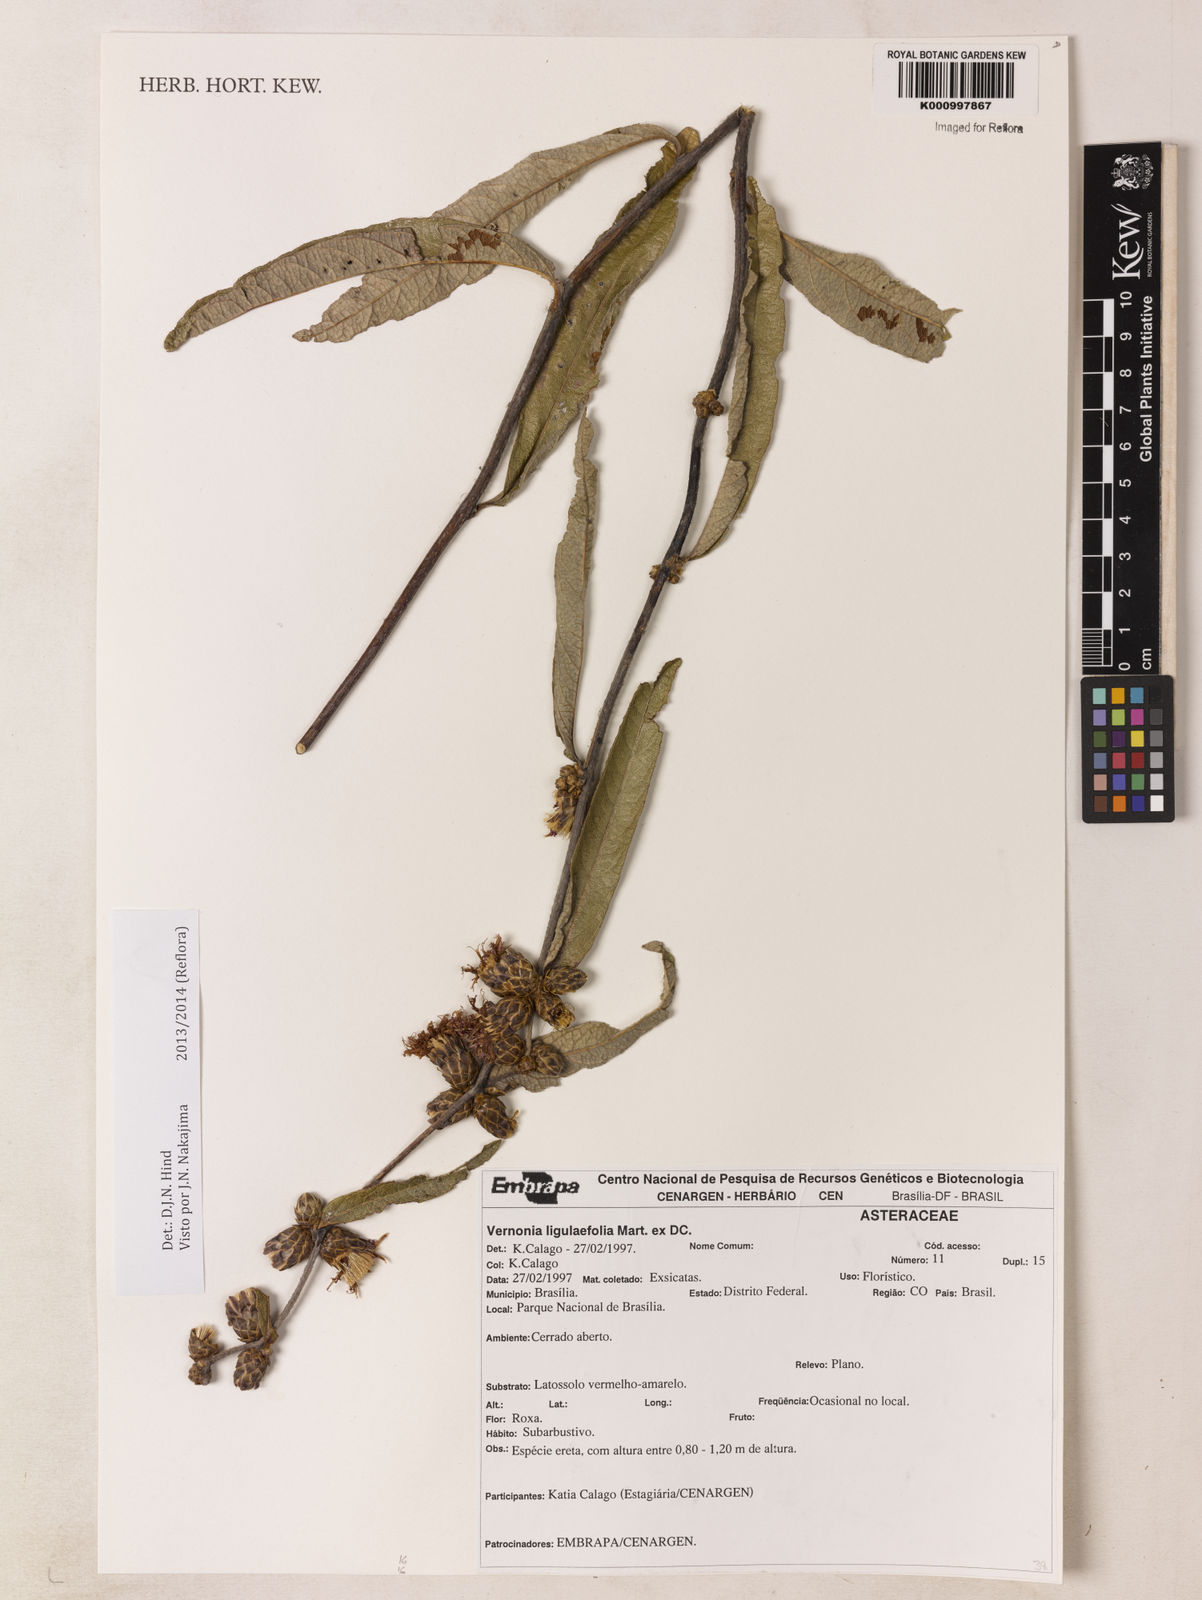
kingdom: Plantae
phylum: Tracheophyta
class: Magnoliopsida
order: Asterales
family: Asteraceae
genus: Lessingianthus
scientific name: Lessingianthus ligulifolius
